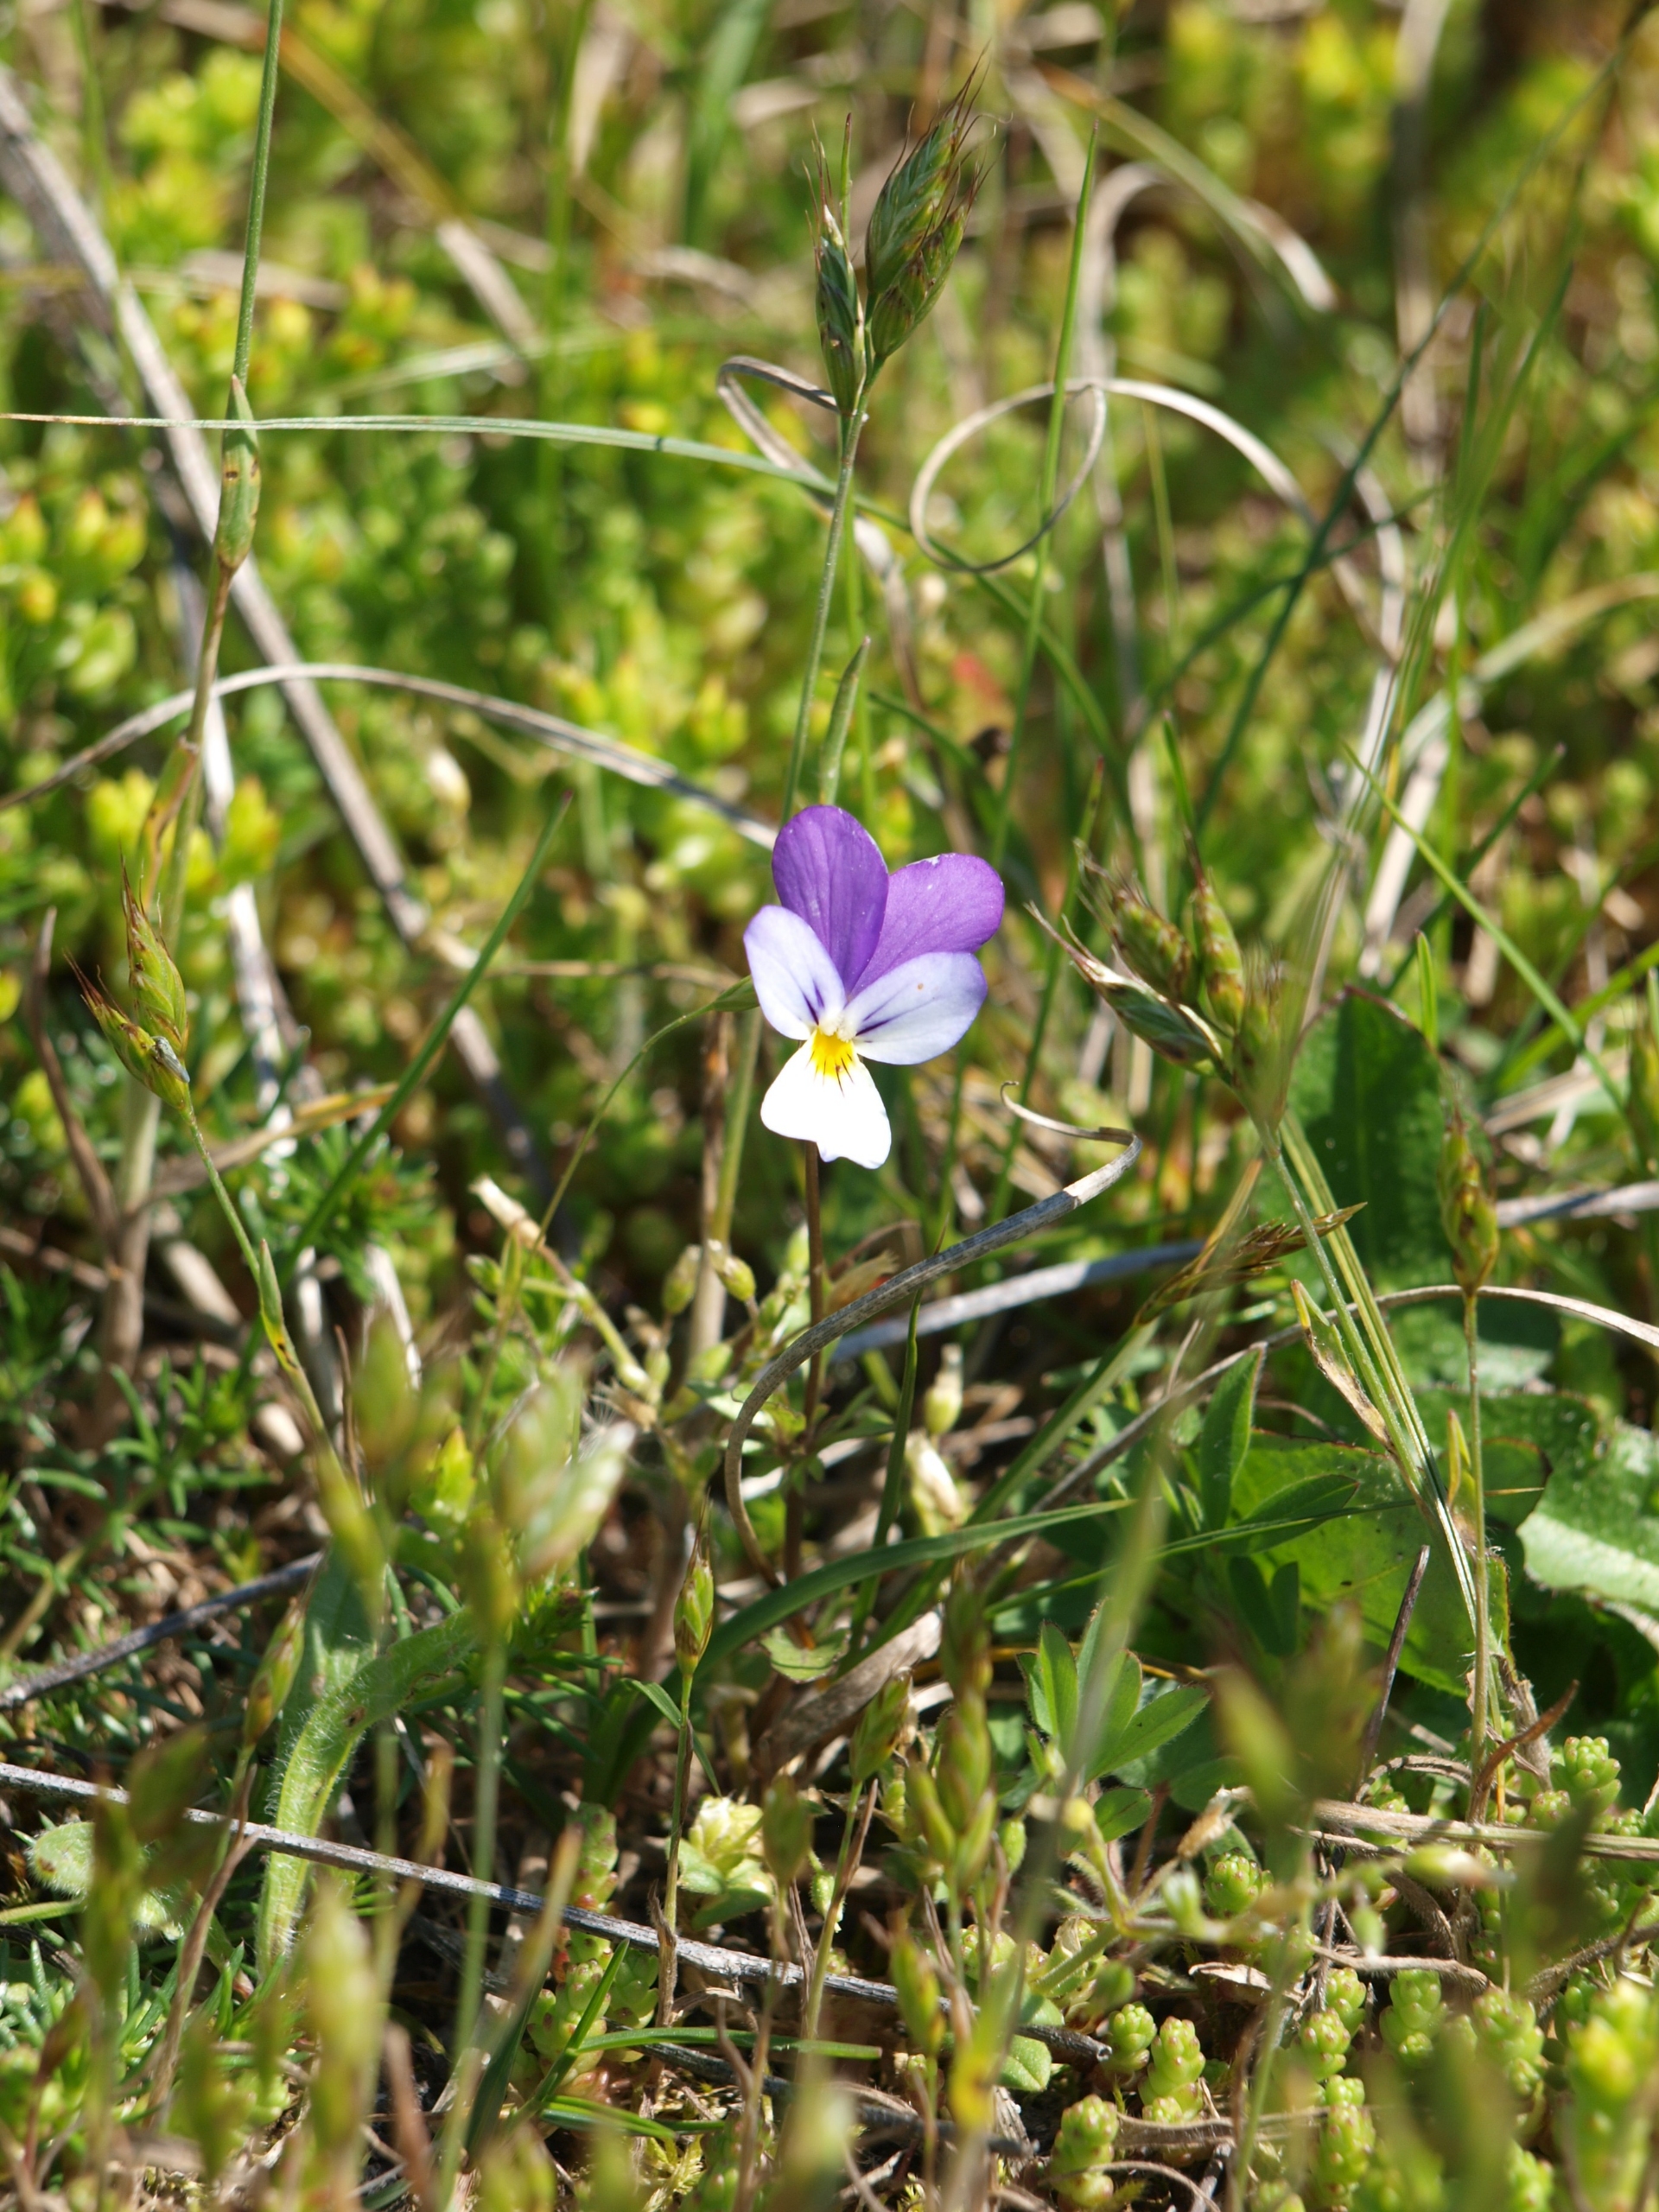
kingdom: Plantae
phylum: Tracheophyta
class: Magnoliopsida
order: Malpighiales
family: Violaceae
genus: Viola
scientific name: Viola tricolor
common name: Stedmoderblomst
